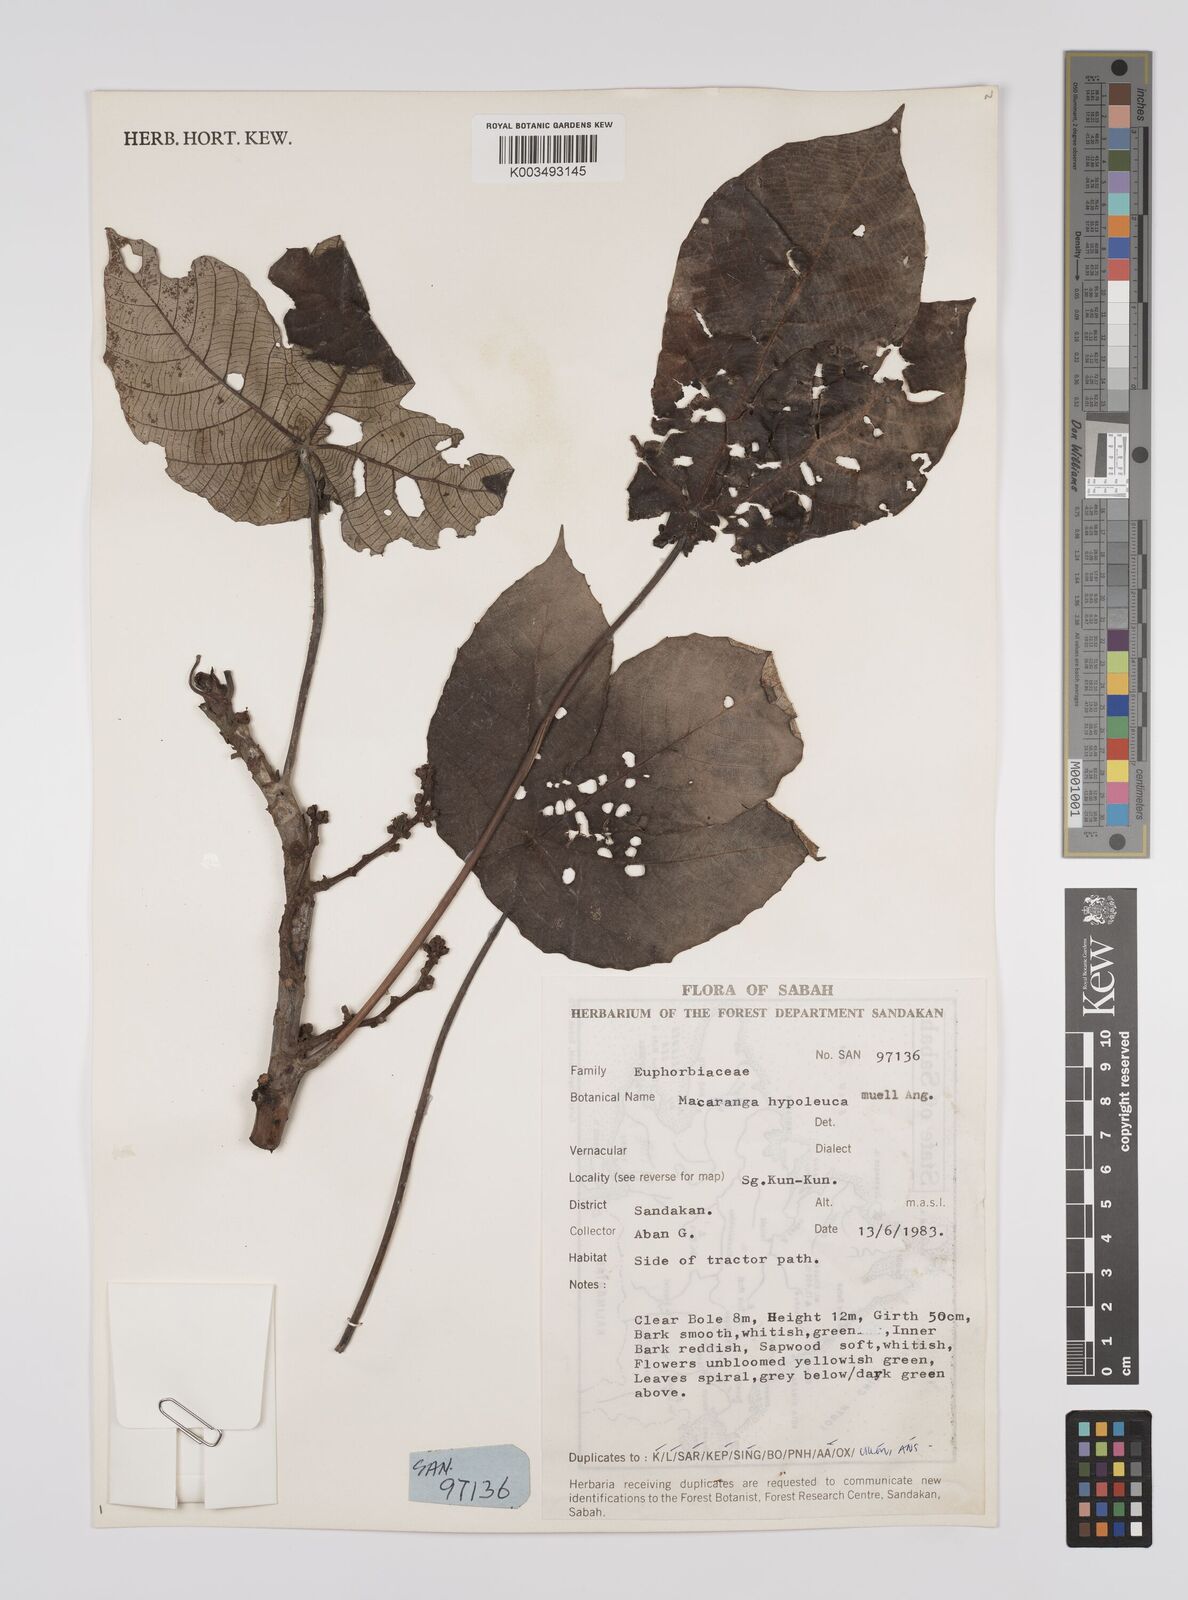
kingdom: Plantae
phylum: Tracheophyta
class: Magnoliopsida
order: Malpighiales
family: Euphorbiaceae
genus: Macaranga
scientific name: Macaranga hypoleuca
